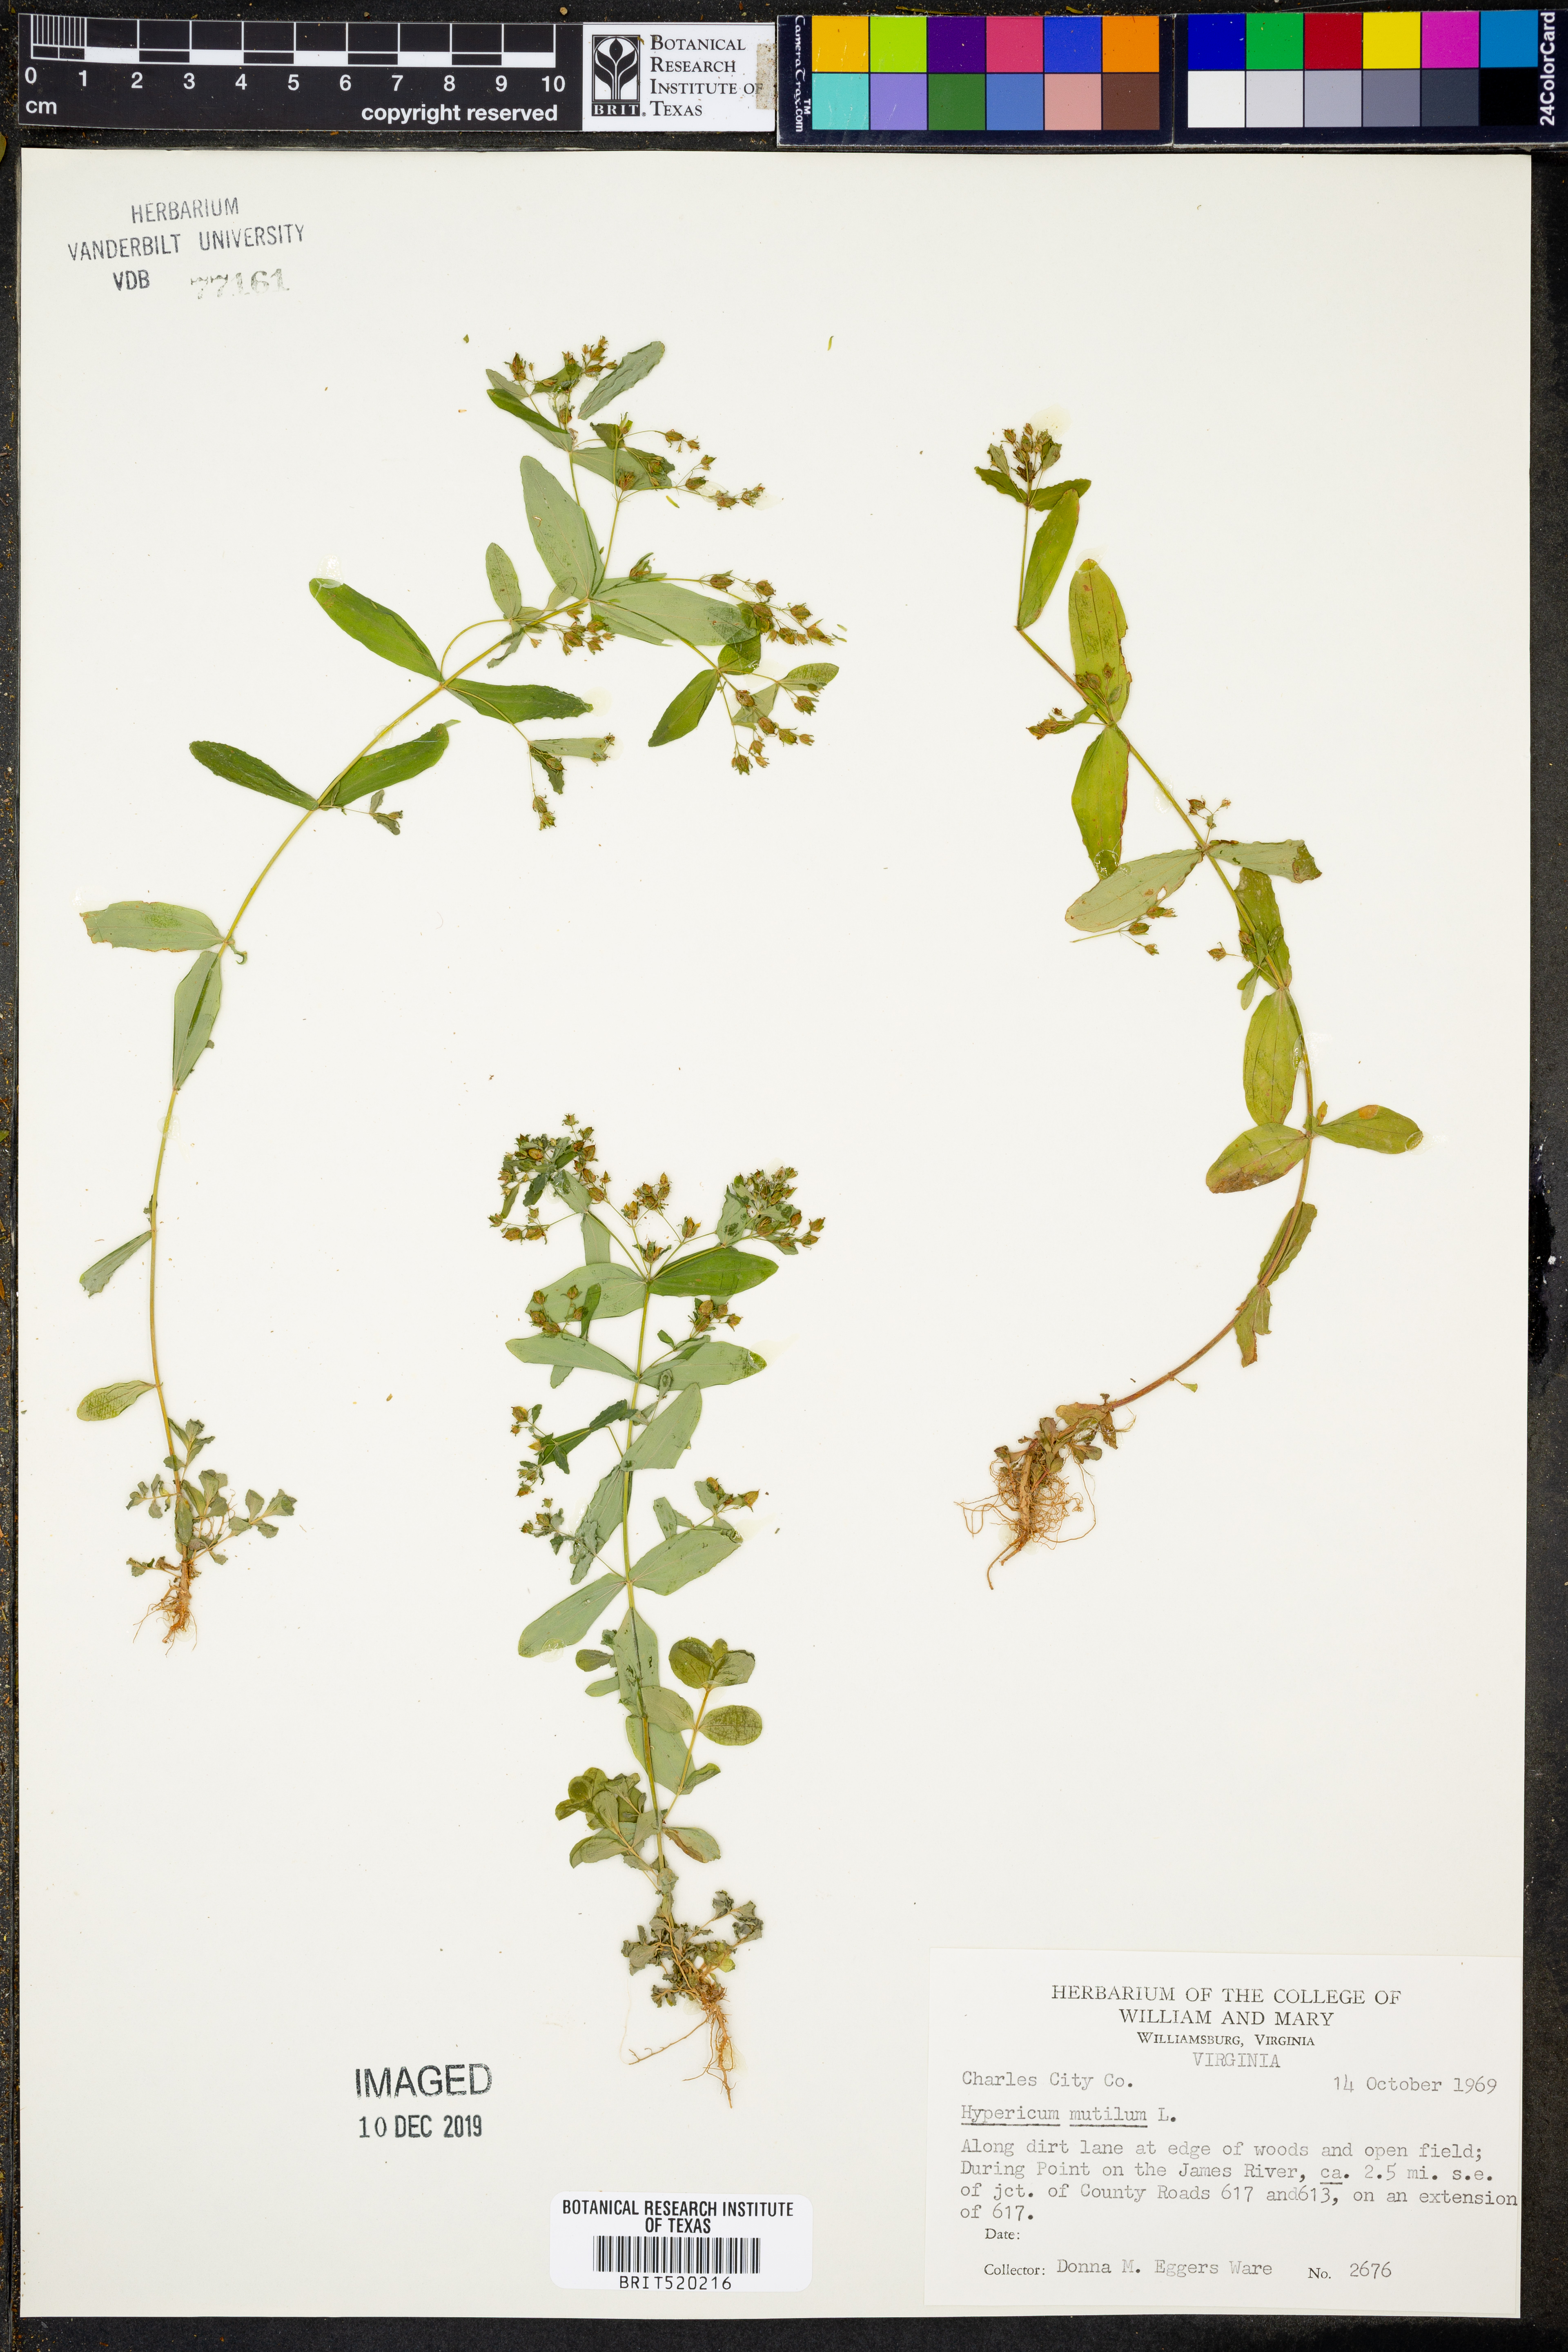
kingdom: Plantae
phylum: Tracheophyta
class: Magnoliopsida
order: Malpighiales
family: Hypericaceae
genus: Hypericum
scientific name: Hypericum mutilum
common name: Dwarf st. john's-wort
